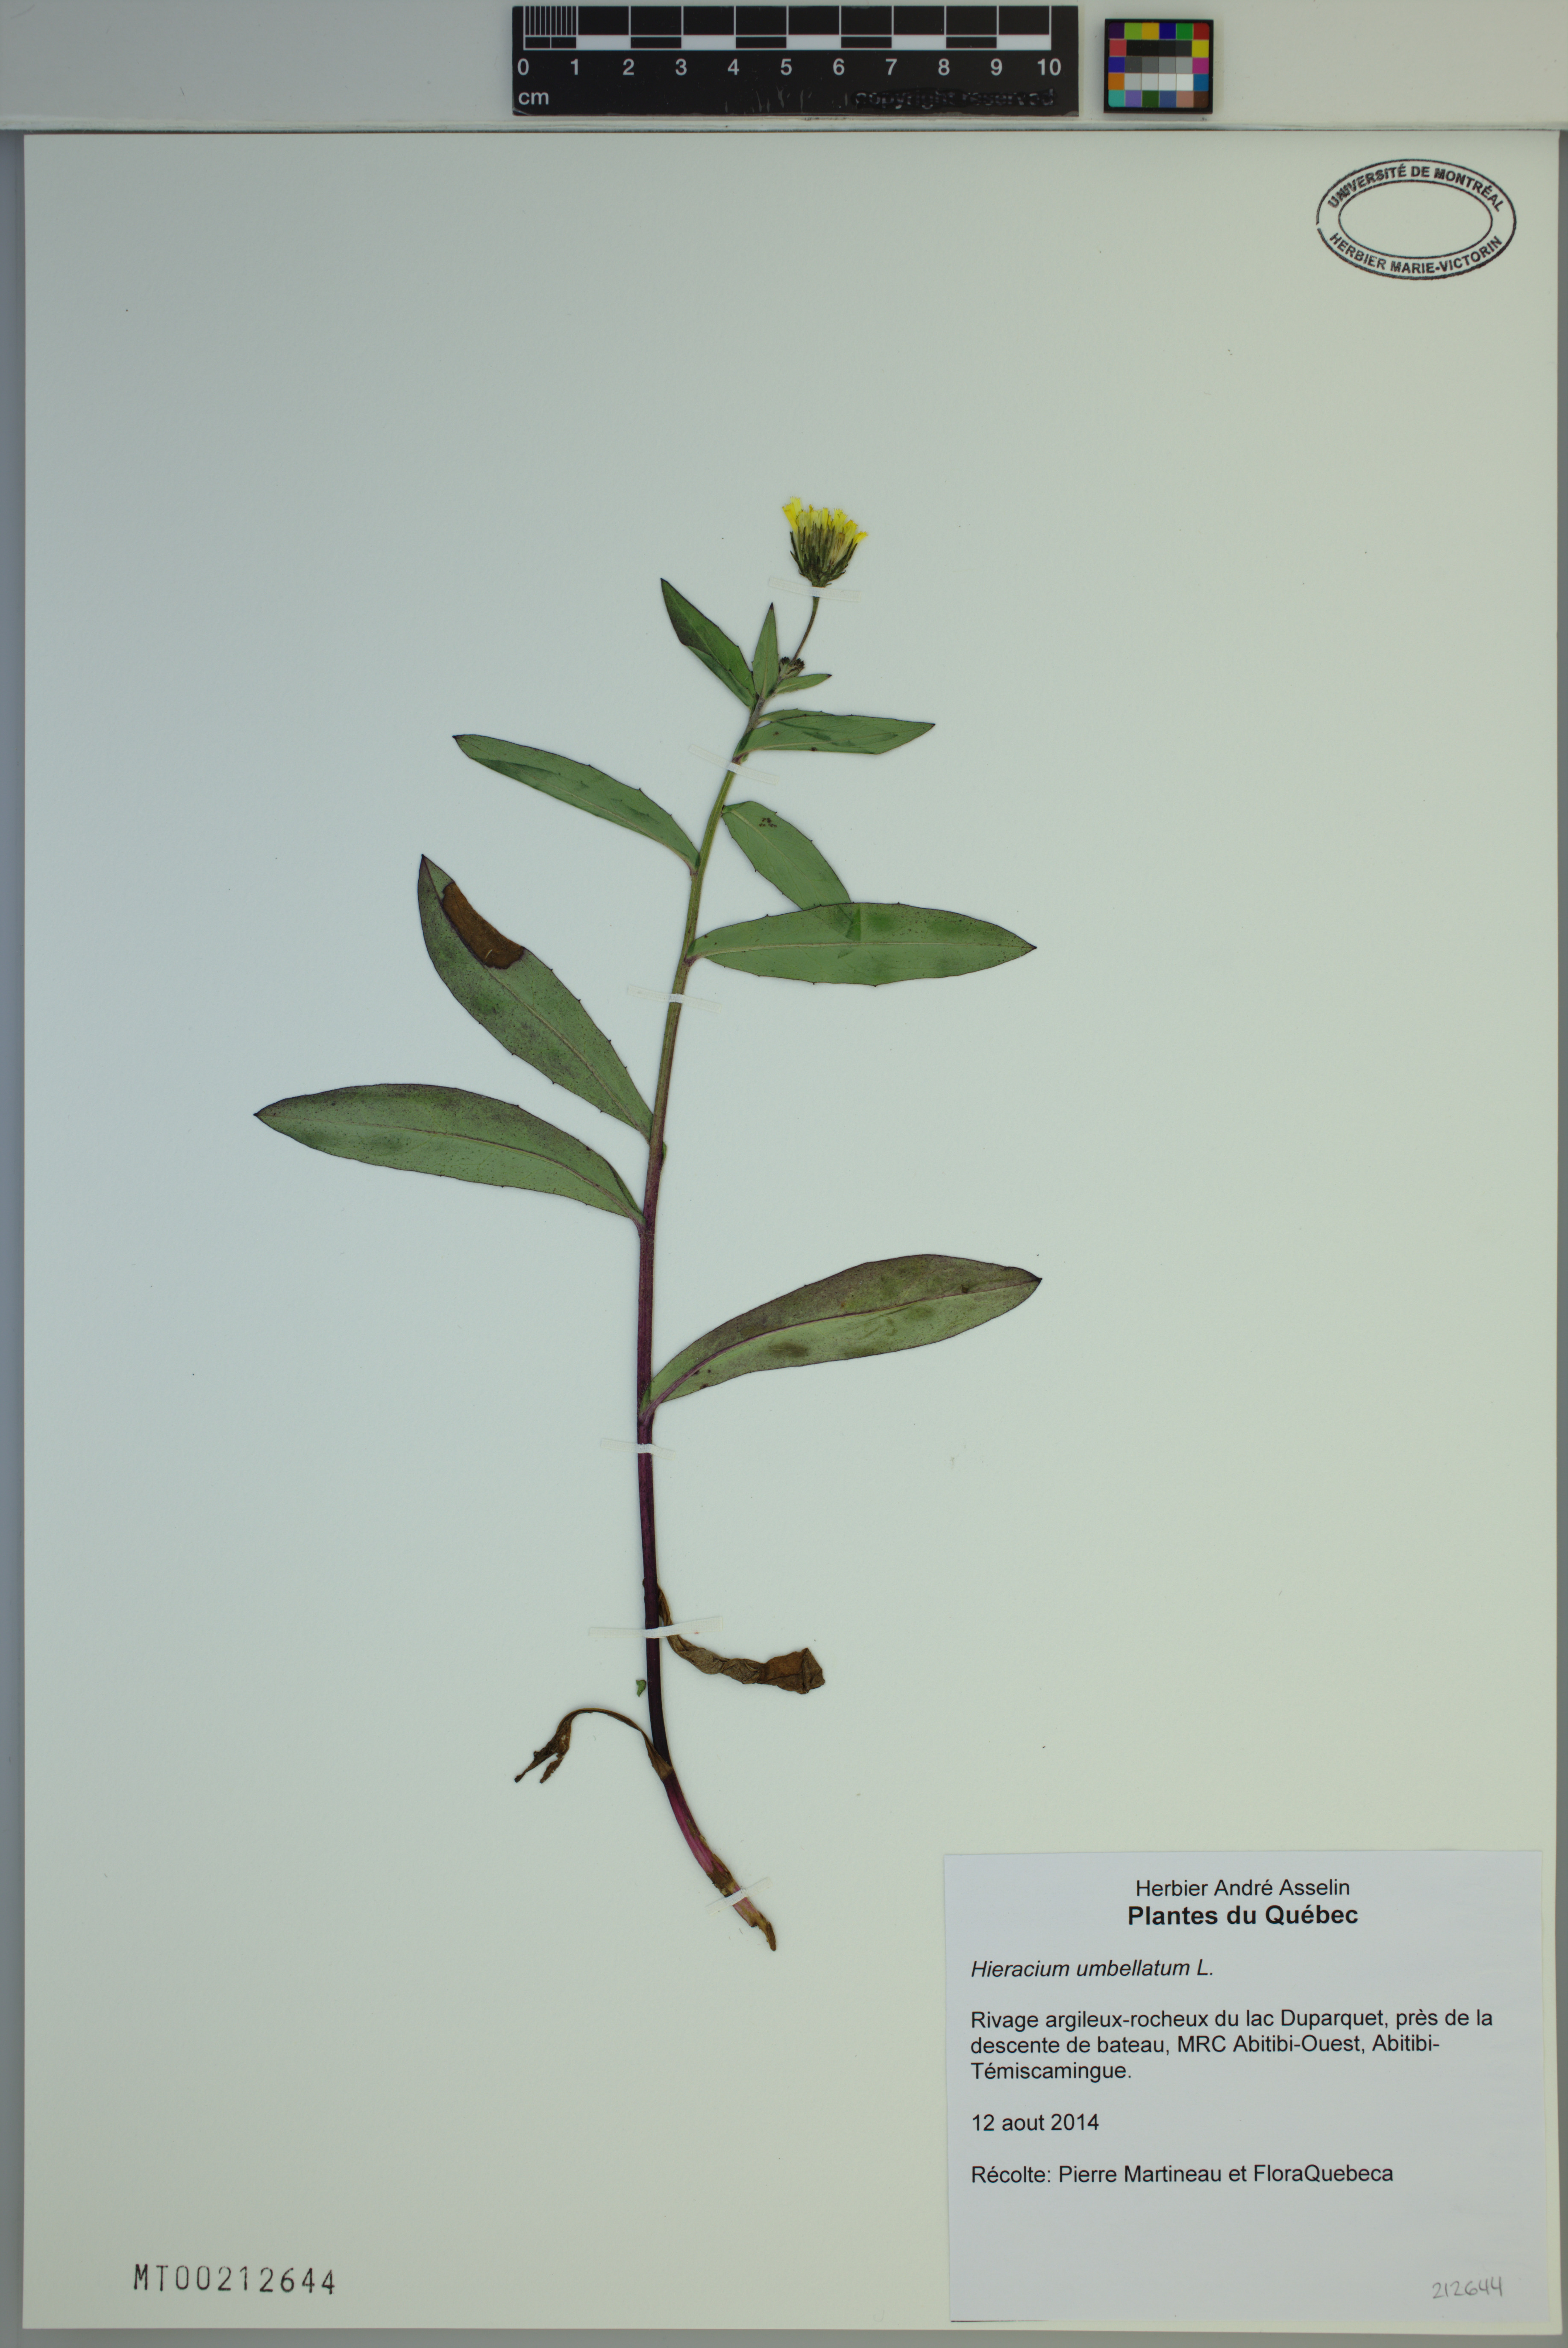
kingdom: Plantae
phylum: Tracheophyta
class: Magnoliopsida
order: Asterales
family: Asteraceae
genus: Hieracium
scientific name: Hieracium umbellatum
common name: Northern hawkweed
